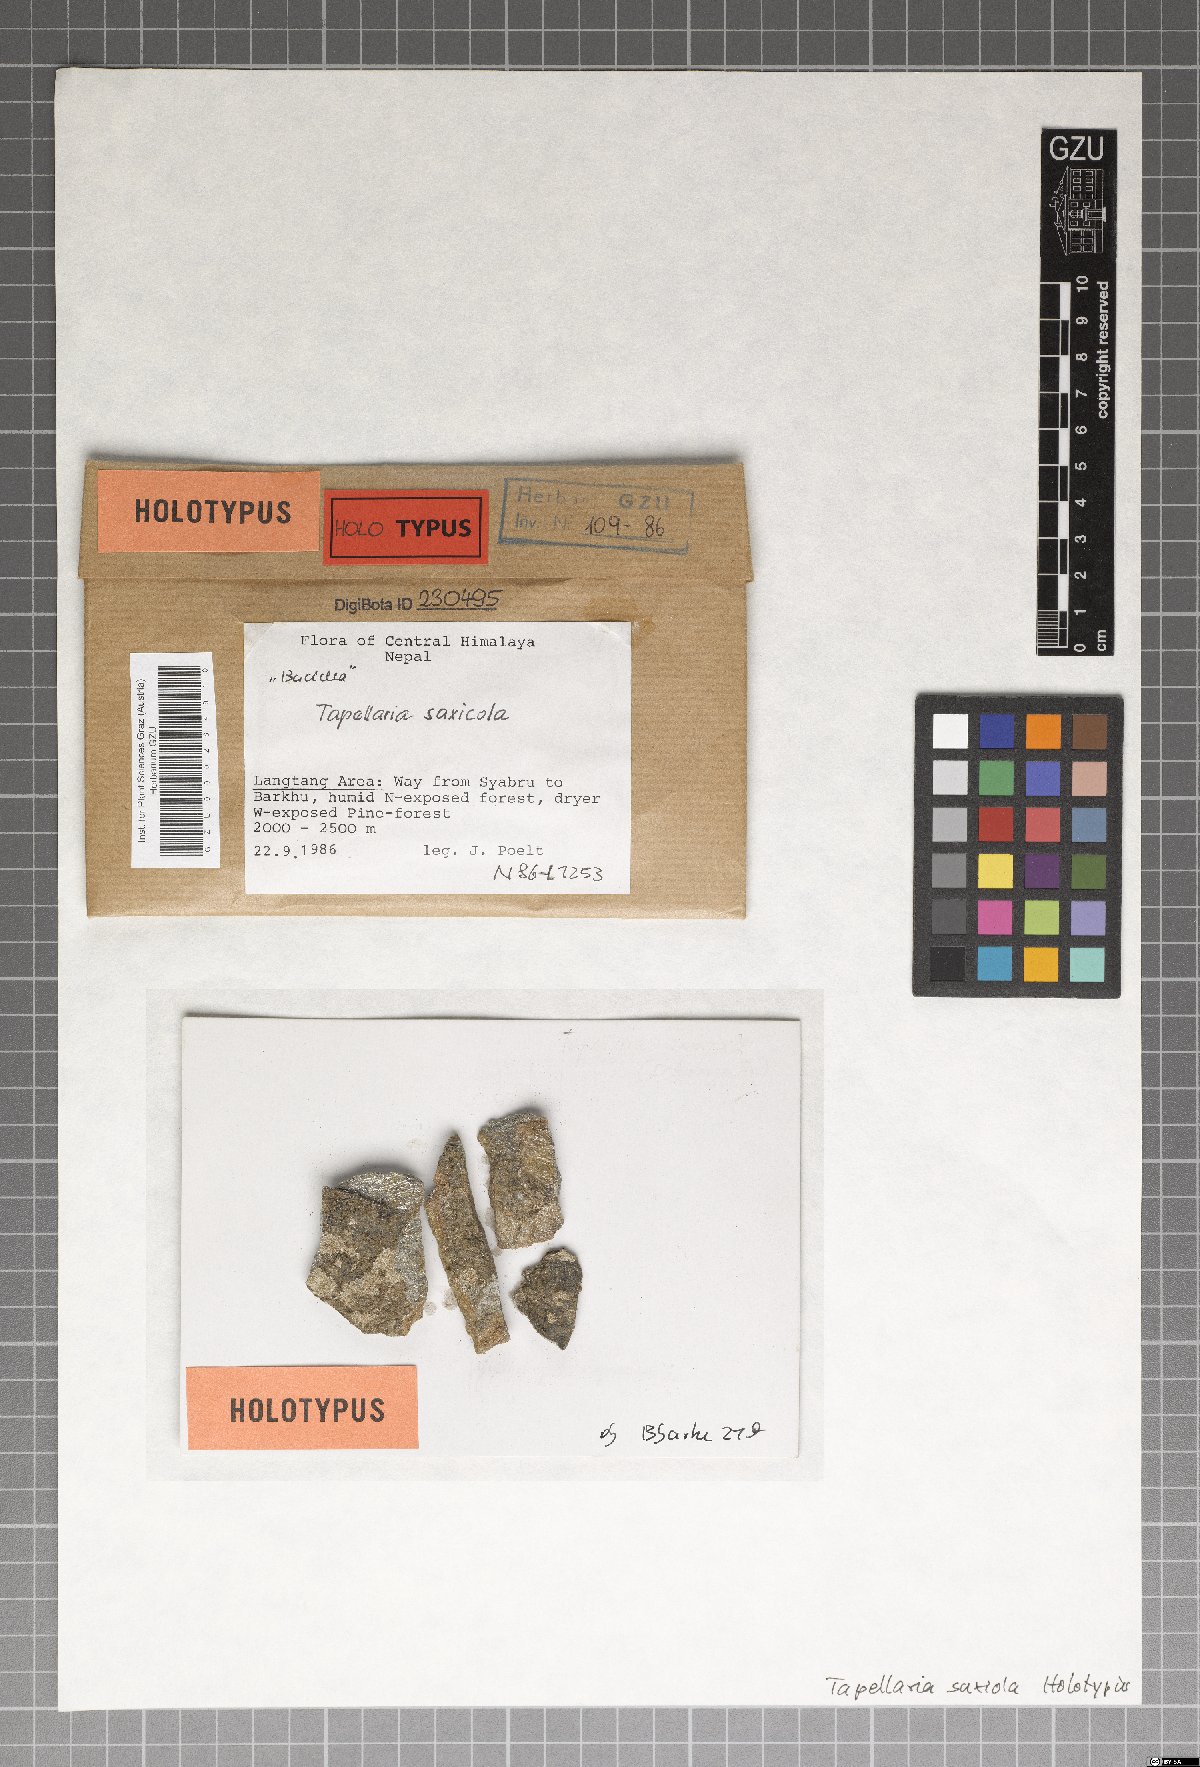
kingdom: Fungi
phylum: Ascomycota
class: Lecanoromycetes
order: Lecanorales
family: Byssolomataceae
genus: Tapellaria
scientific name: Tapellaria saxicola
